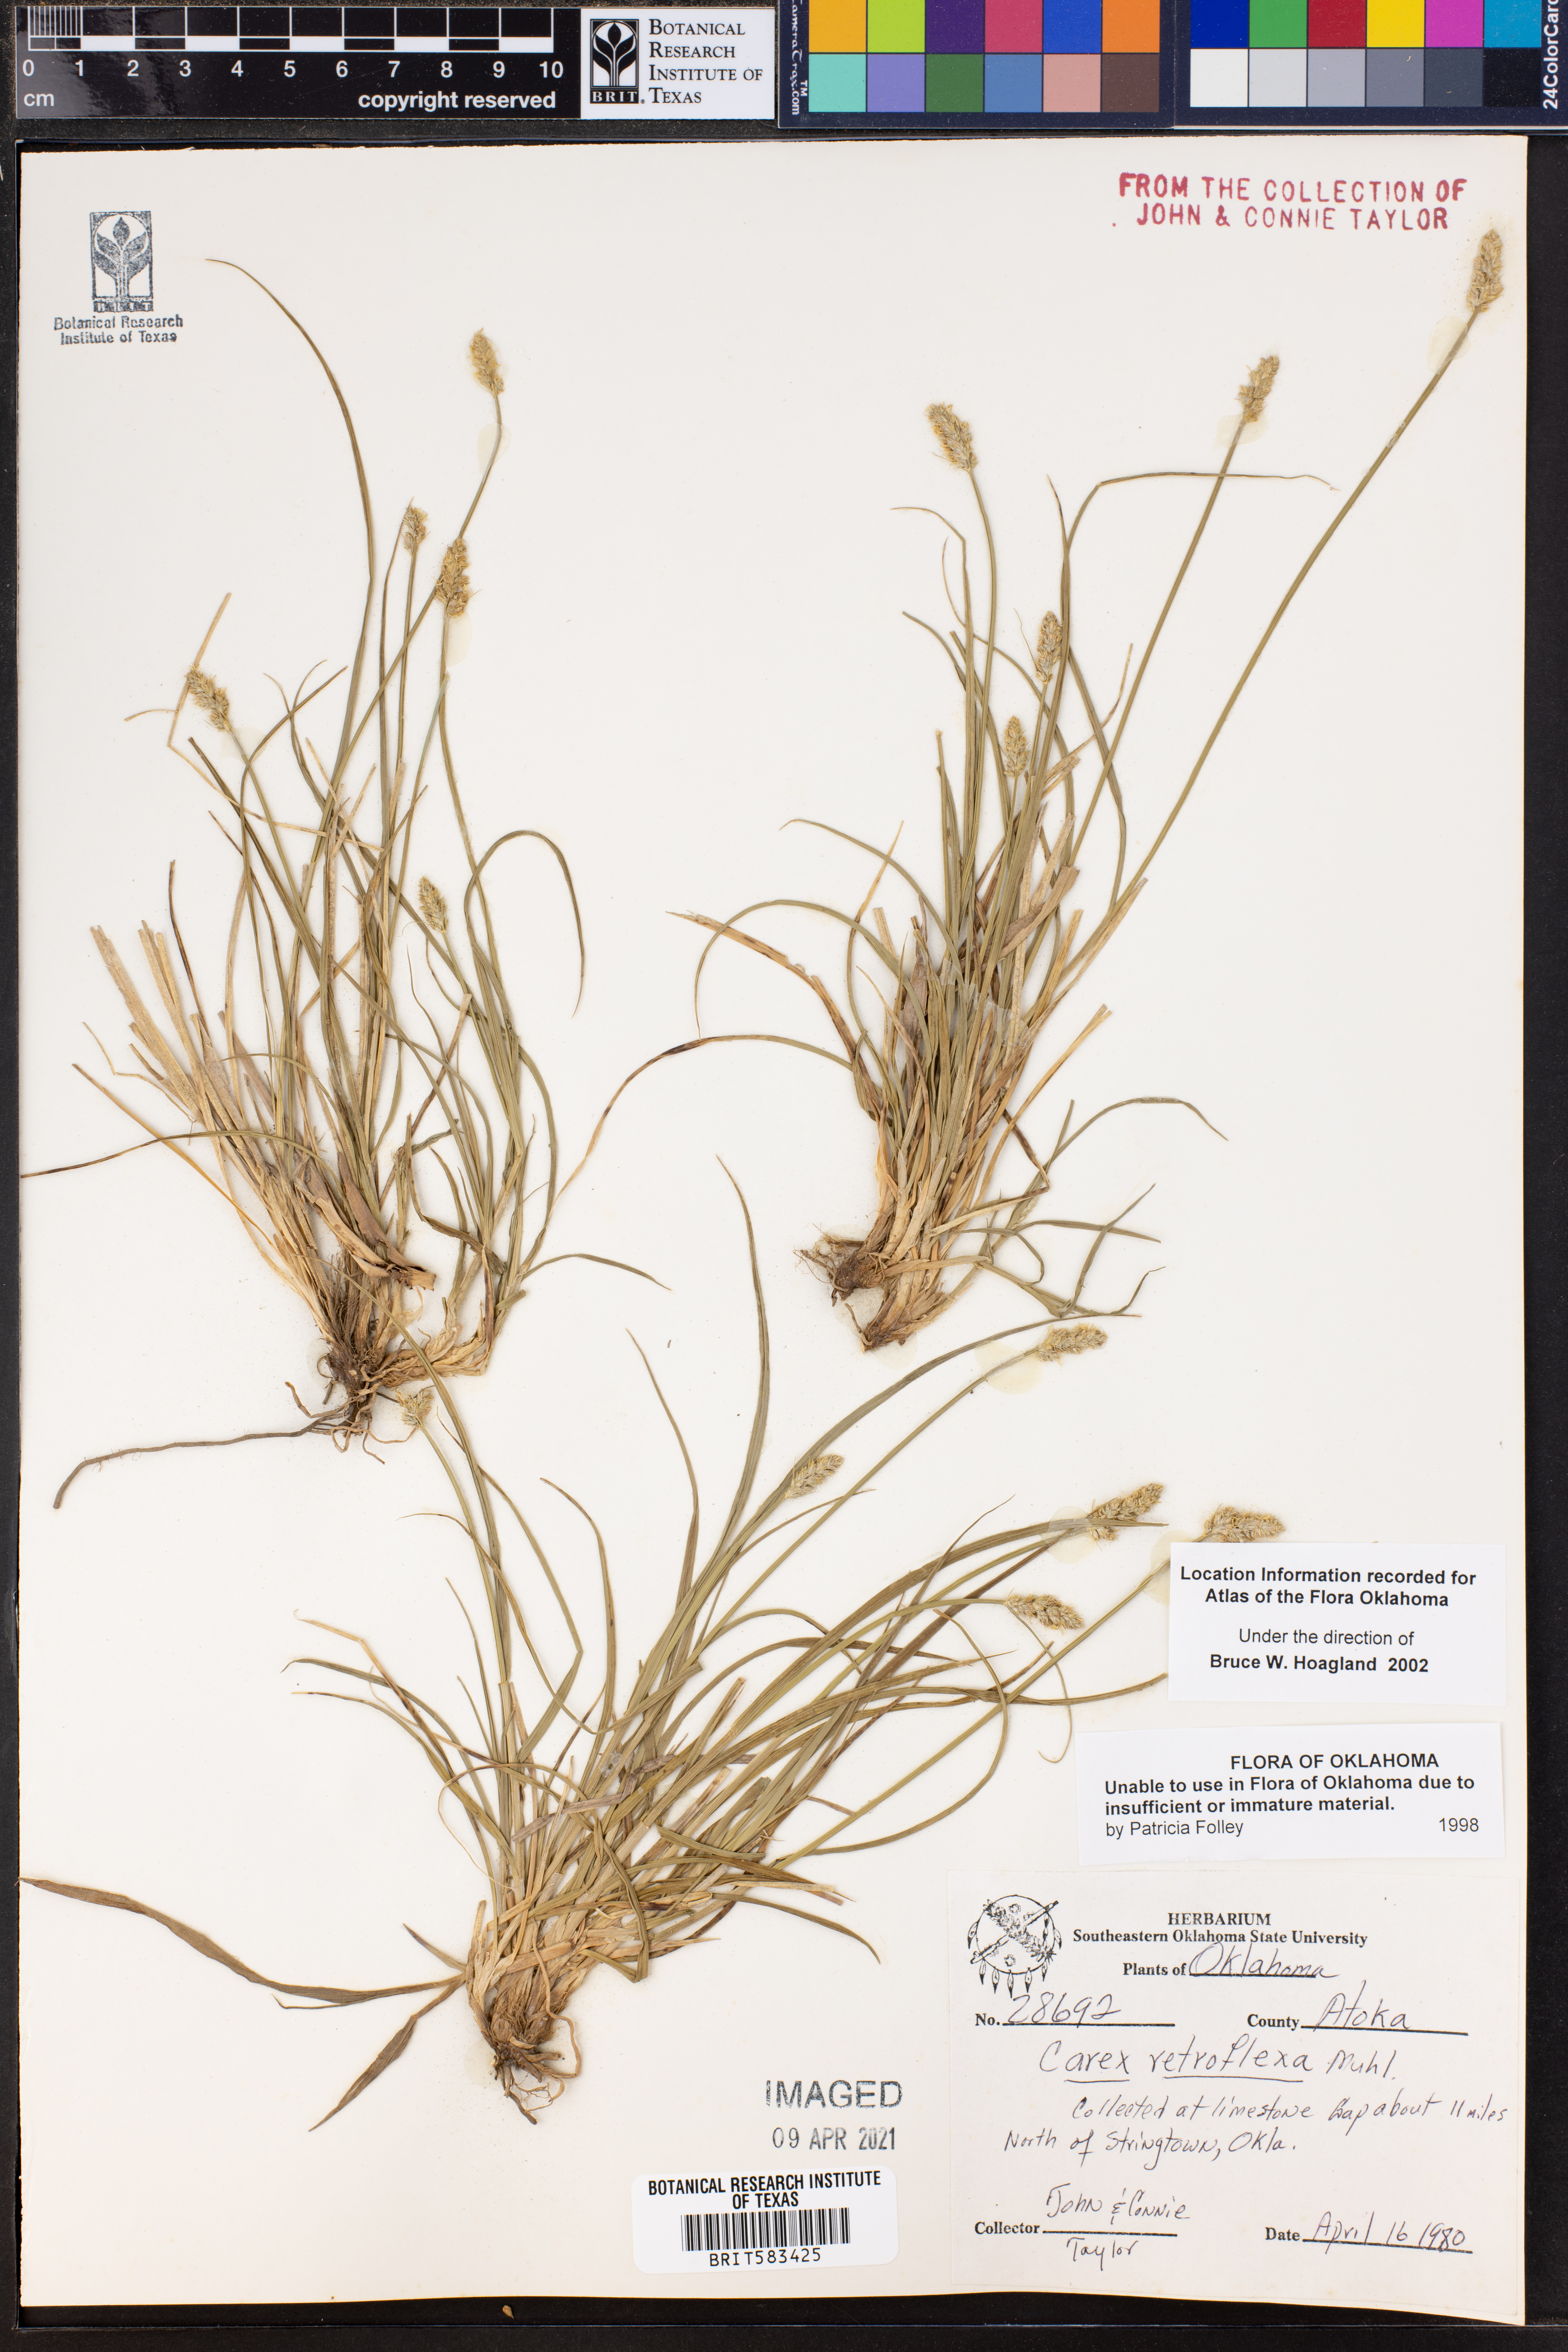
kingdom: Plantae
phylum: Tracheophyta
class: Liliopsida
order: Poales
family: Cyperaceae
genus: Carex
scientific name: Carex retroflexa
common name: Reflexed sedge
